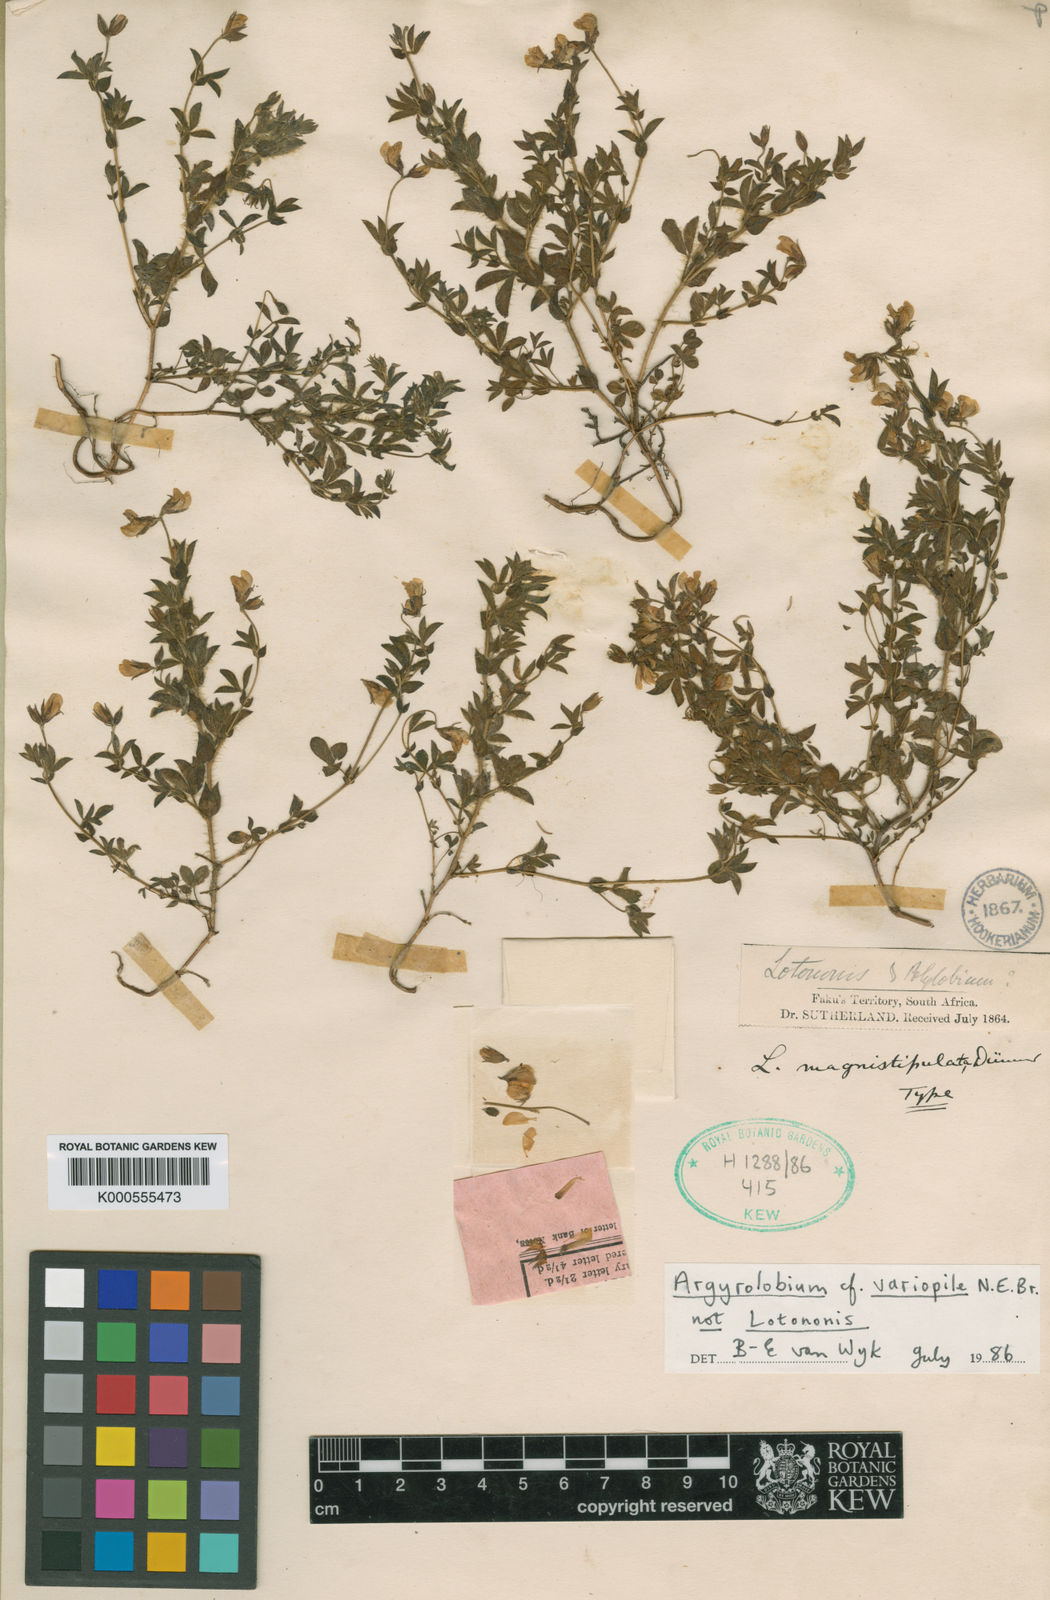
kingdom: Plantae
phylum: Tracheophyta
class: Magnoliopsida
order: Fabales
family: Fabaceae
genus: Argyrolobium
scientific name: Argyrolobium lotoides
